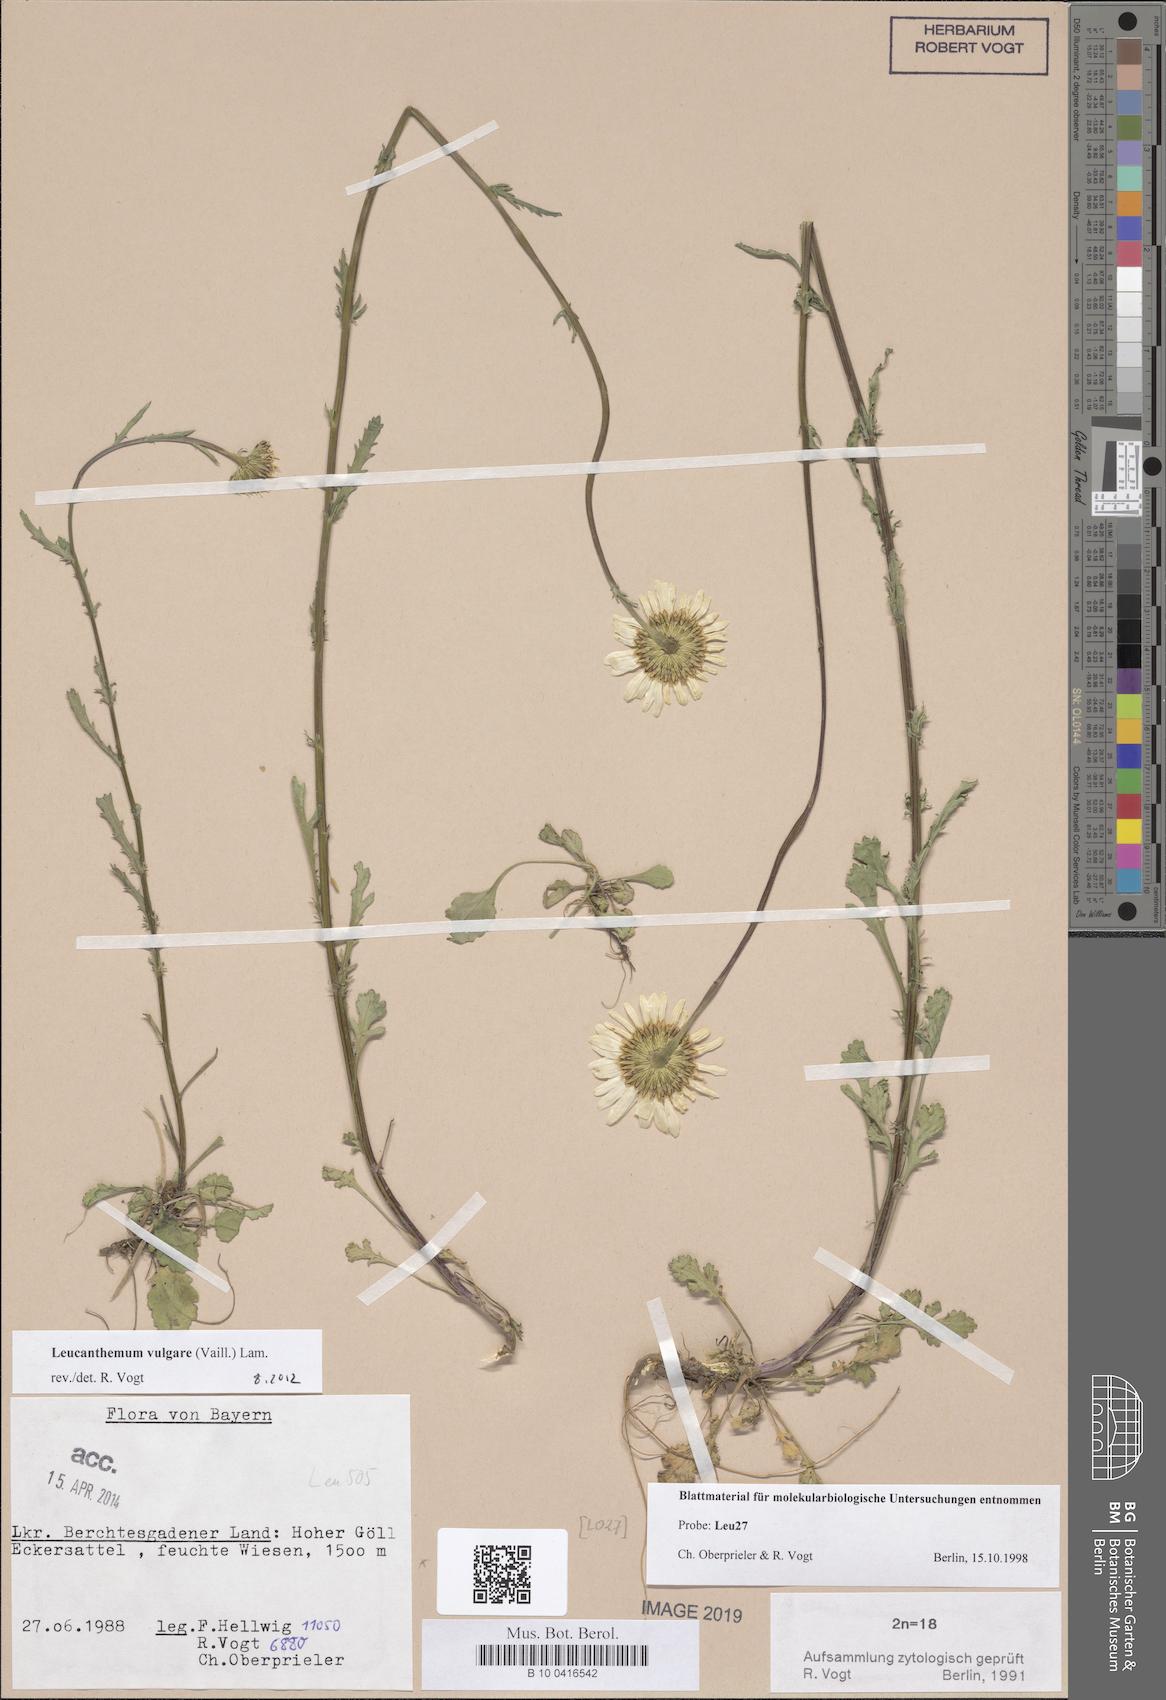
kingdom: Plantae
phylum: Tracheophyta
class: Magnoliopsida
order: Asterales
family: Asteraceae
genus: Leucanthemum
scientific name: Leucanthemum vulgare
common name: Oxeye daisy
